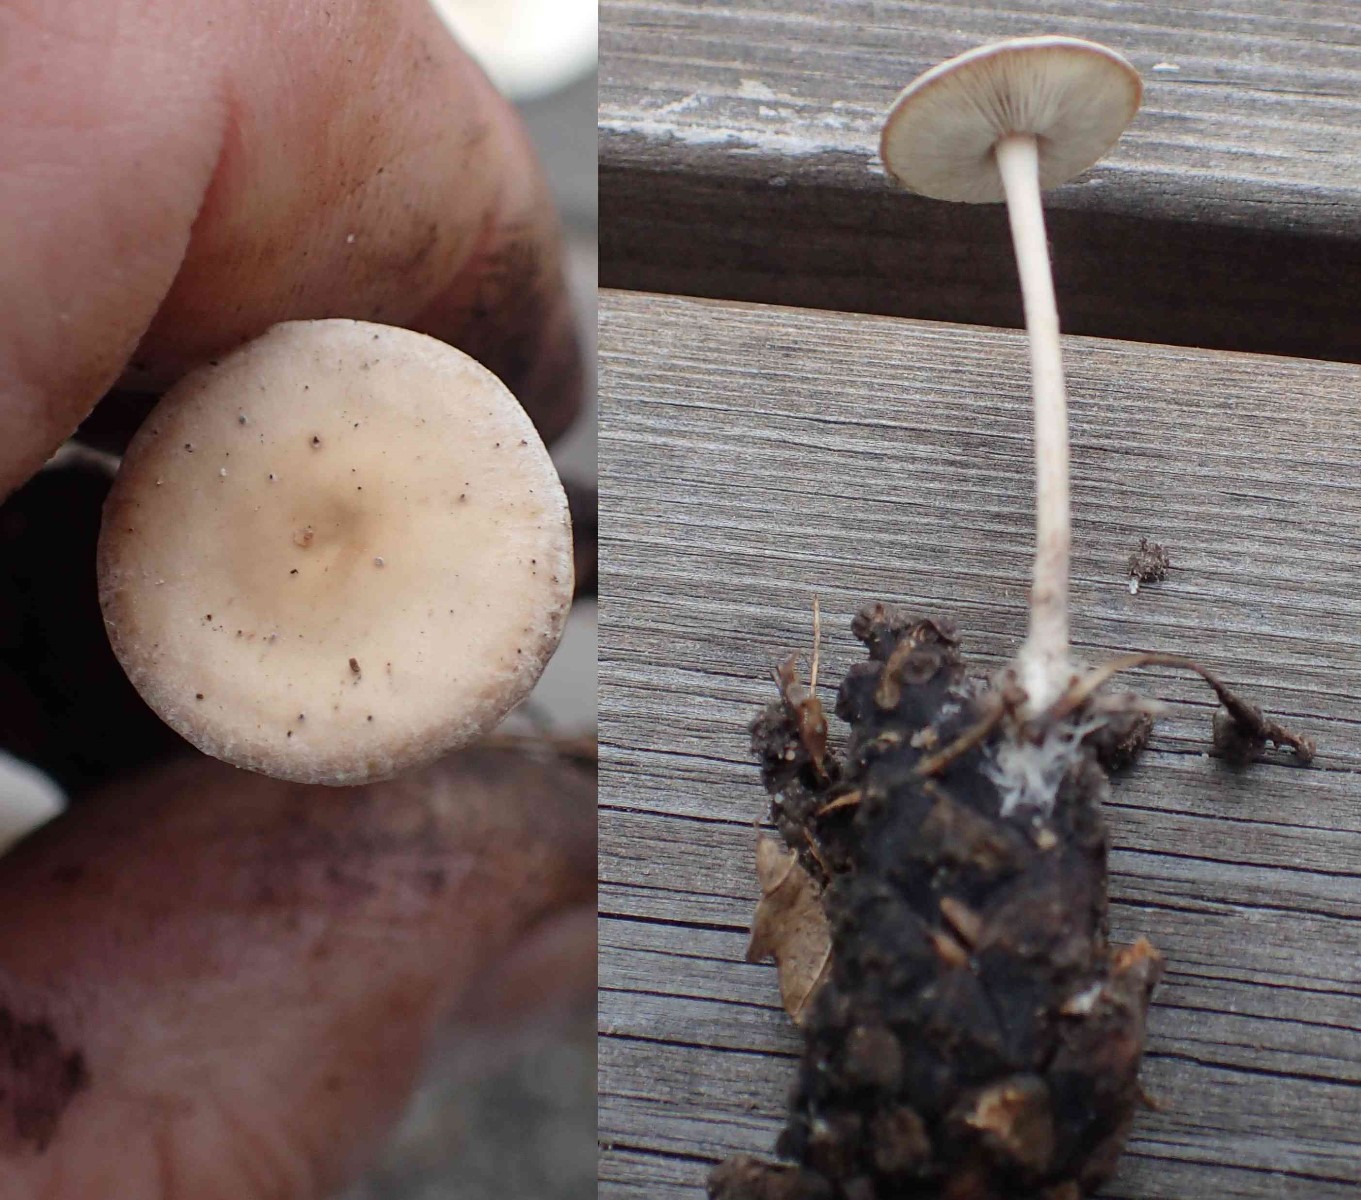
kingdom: Fungi
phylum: Basidiomycota
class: Agaricomycetes
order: Agaricales
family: Marasmiaceae
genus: Baeospora
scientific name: Baeospora myosura
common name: koglebruskhat
